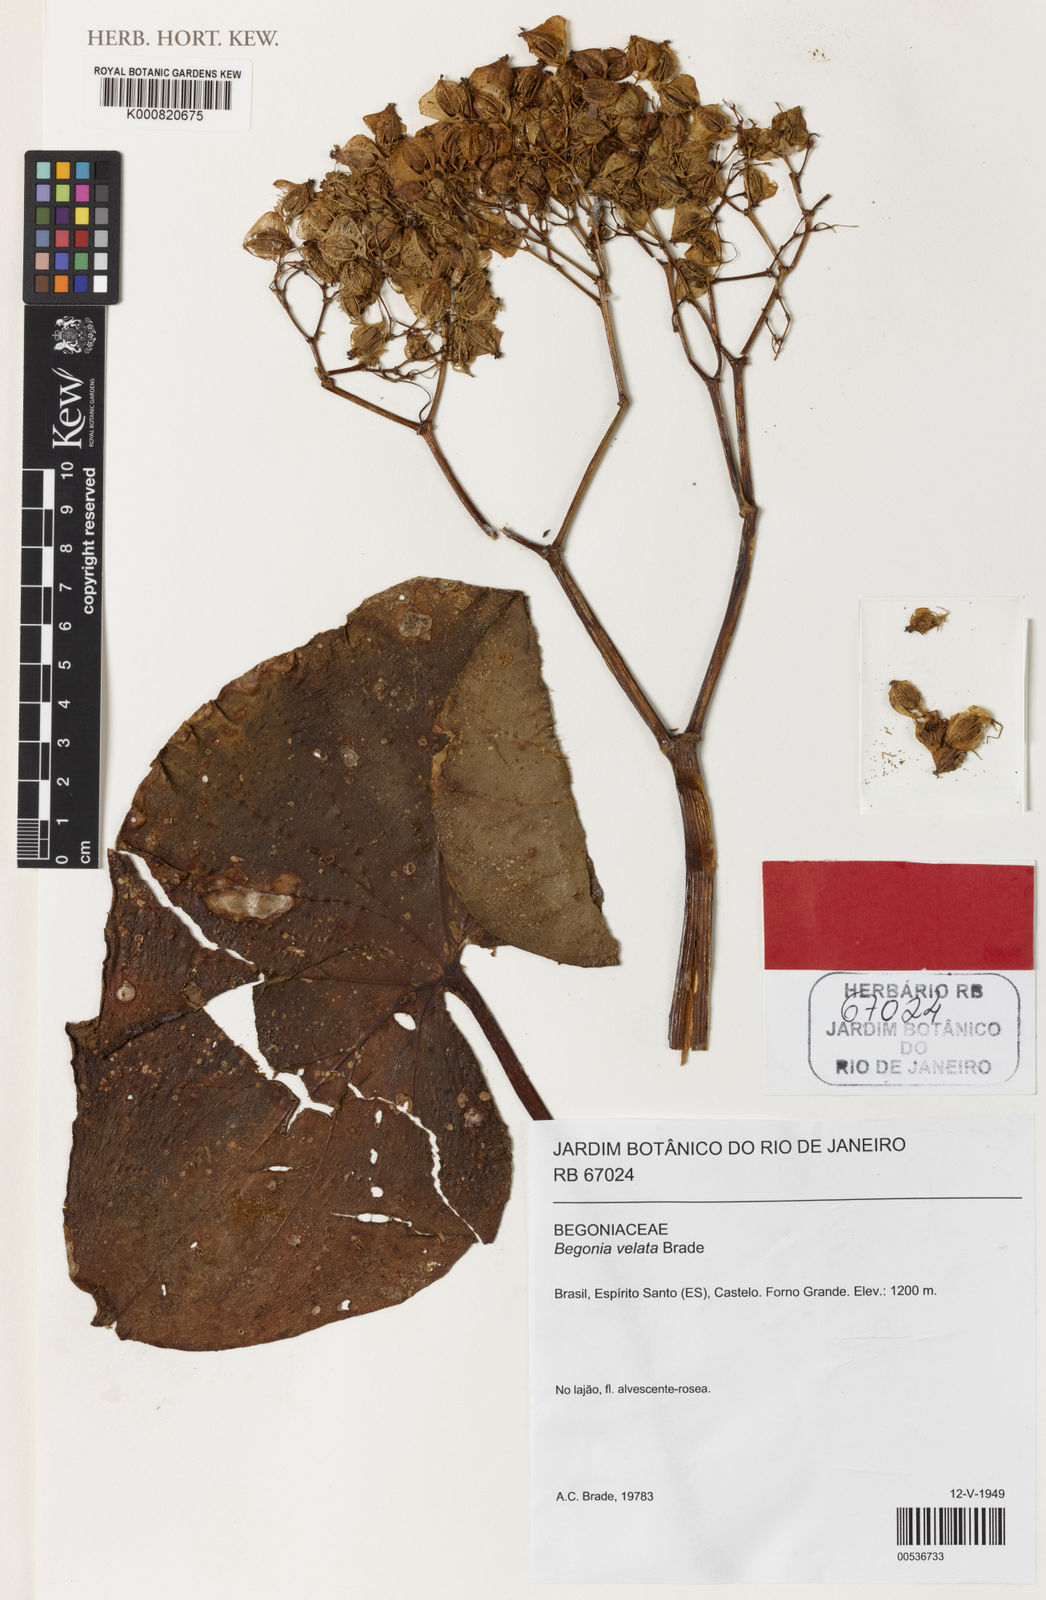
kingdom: Plantae
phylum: Tracheophyta
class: Magnoliopsida
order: Cucurbitales
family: Begoniaceae
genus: Begonia
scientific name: Begonia curtii
